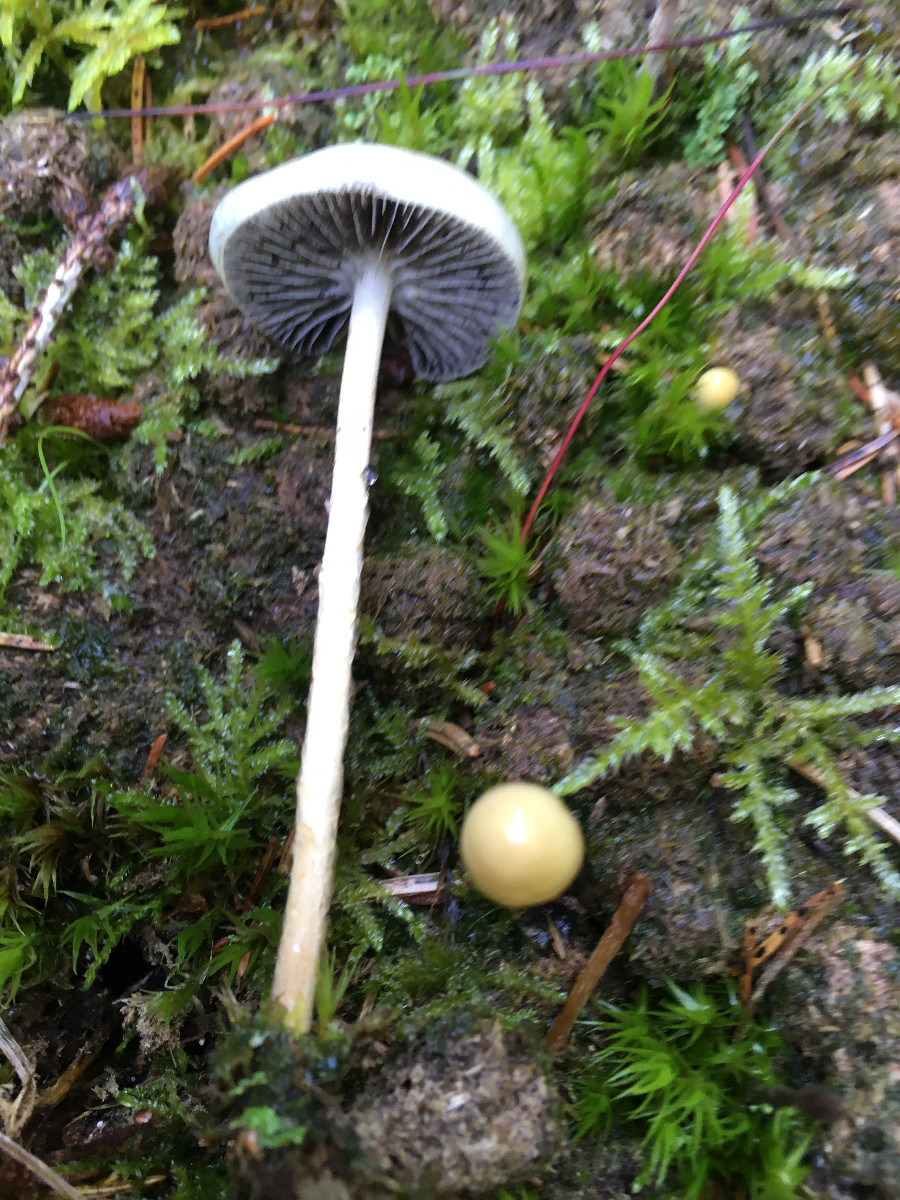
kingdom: Fungi
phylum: Basidiomycota
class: Agaricomycetes
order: Agaricales
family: Strophariaceae
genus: Protostropharia
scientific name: Protostropharia
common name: bredblad
